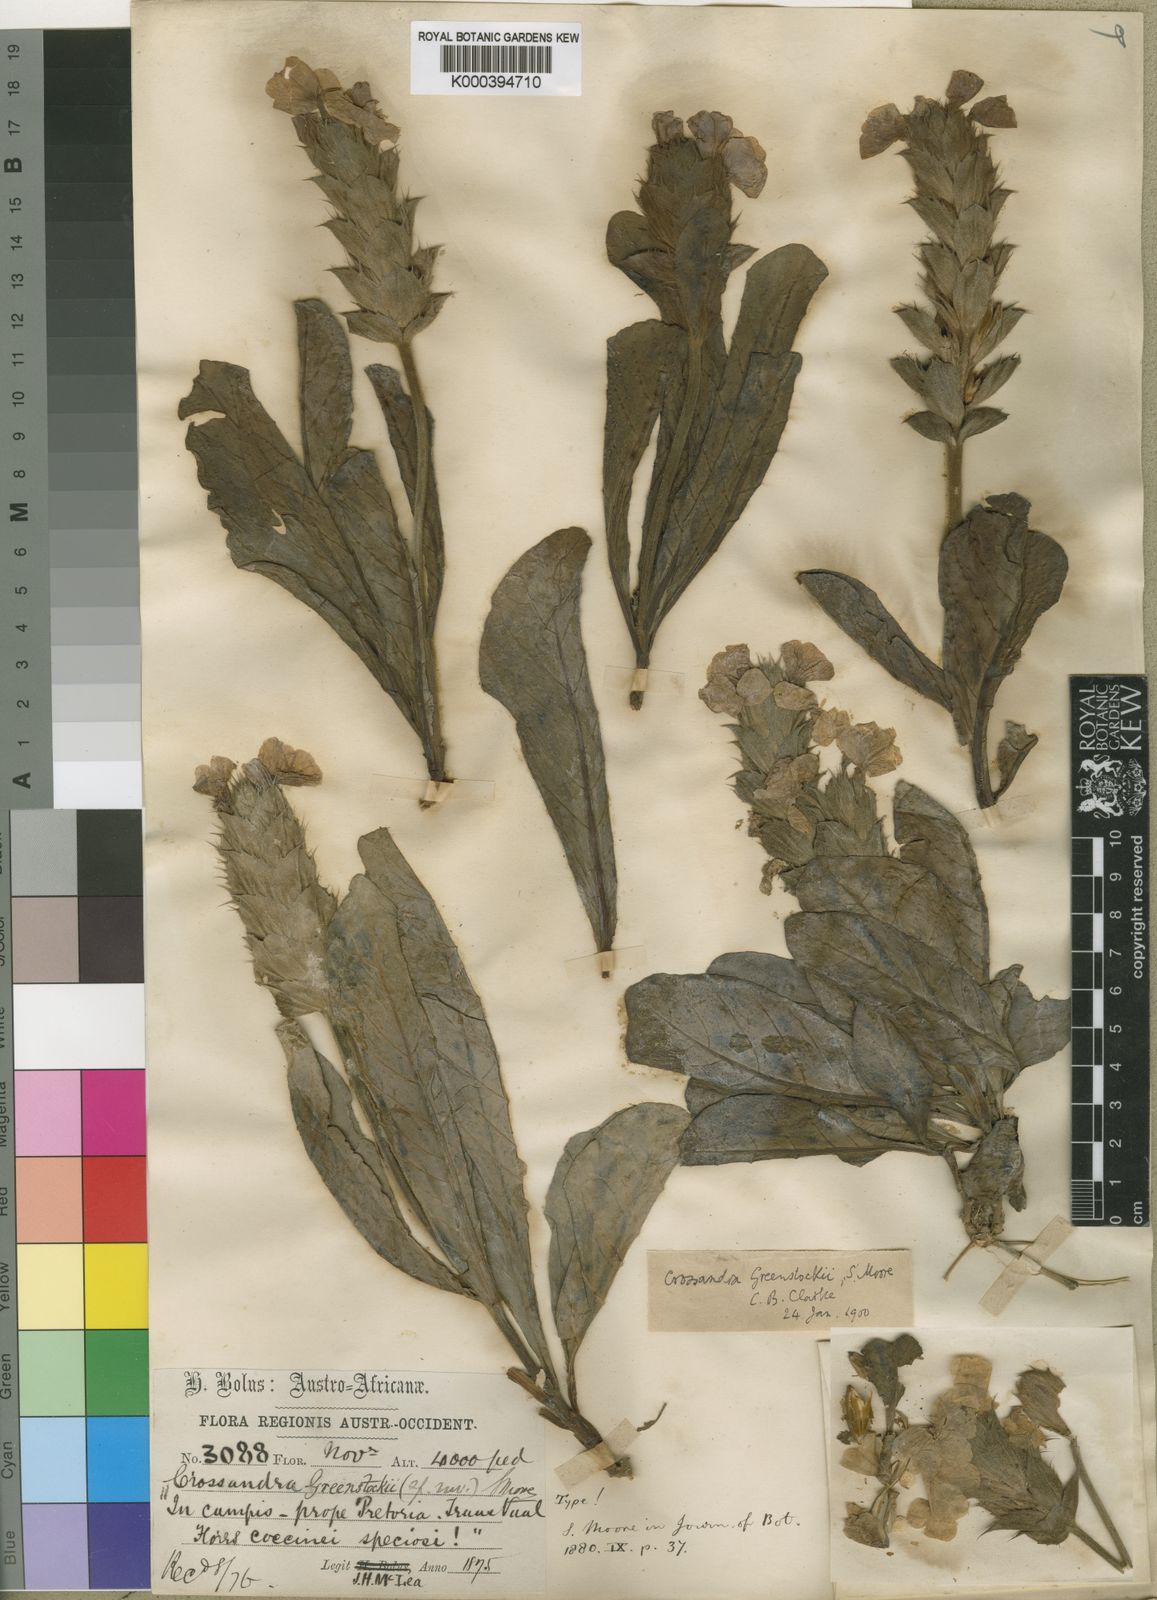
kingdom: Plantae
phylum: Tracheophyta
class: Magnoliopsida
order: Lamiales
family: Acanthaceae
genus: Crossandra
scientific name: Crossandra greenstockii
